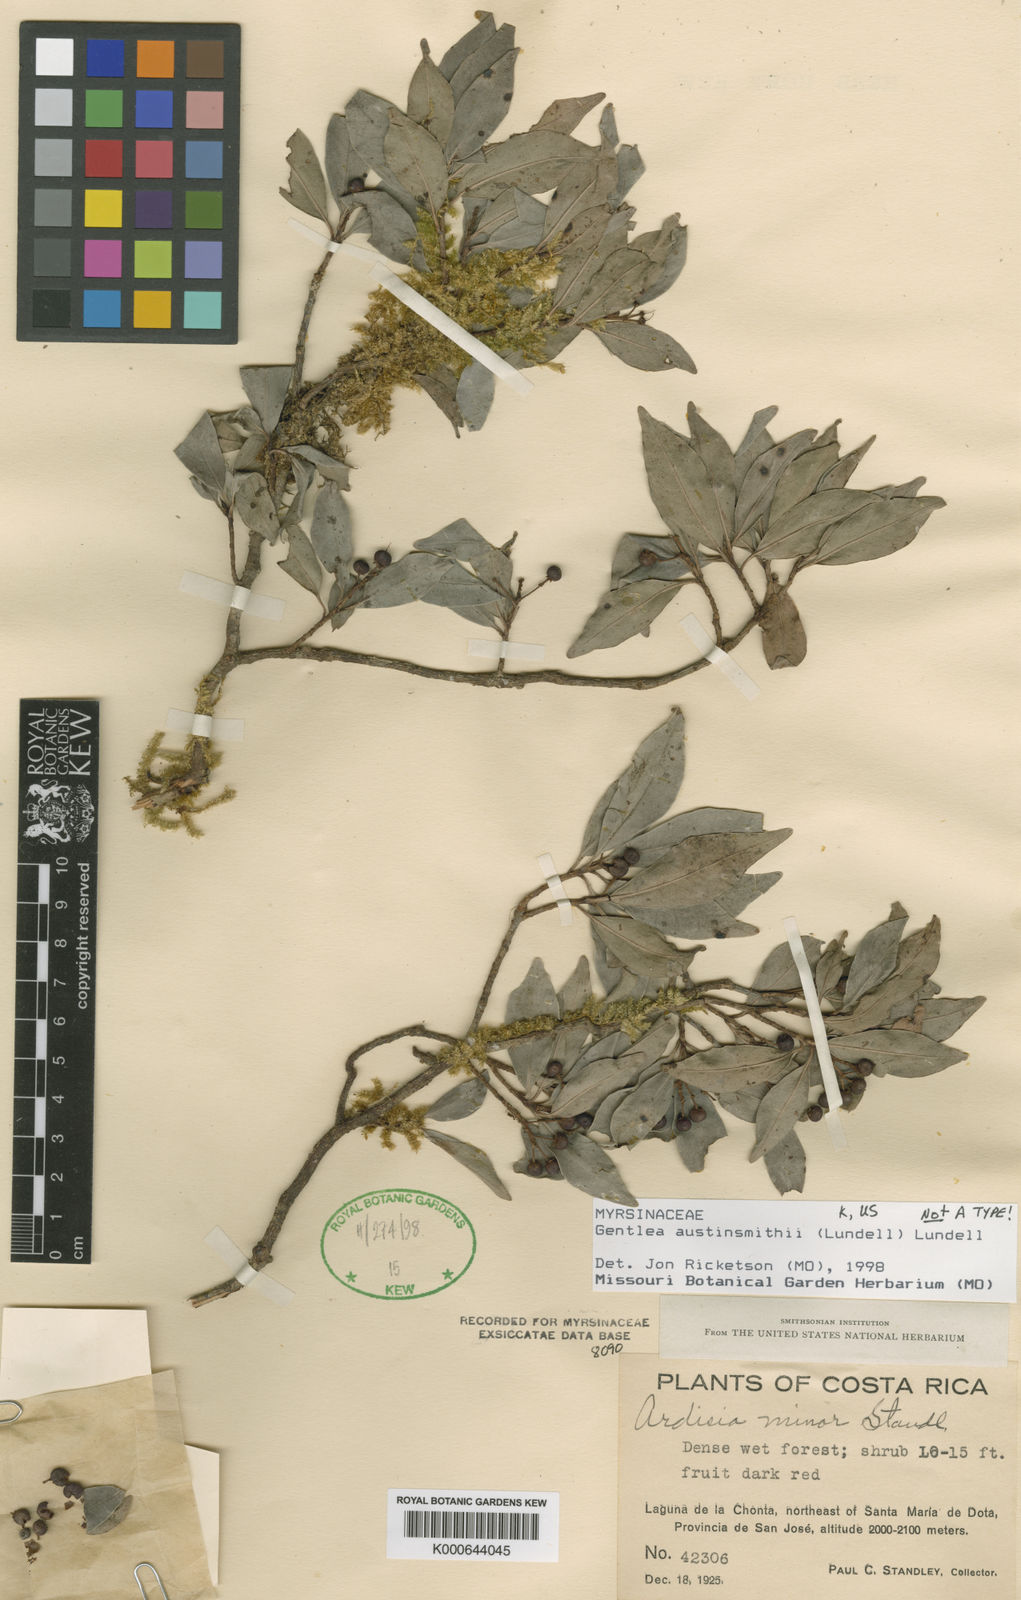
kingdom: Plantae
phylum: Tracheophyta
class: Magnoliopsida
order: Ericales
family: Primulaceae
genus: Gentlea
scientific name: Gentlea austin-smithii
